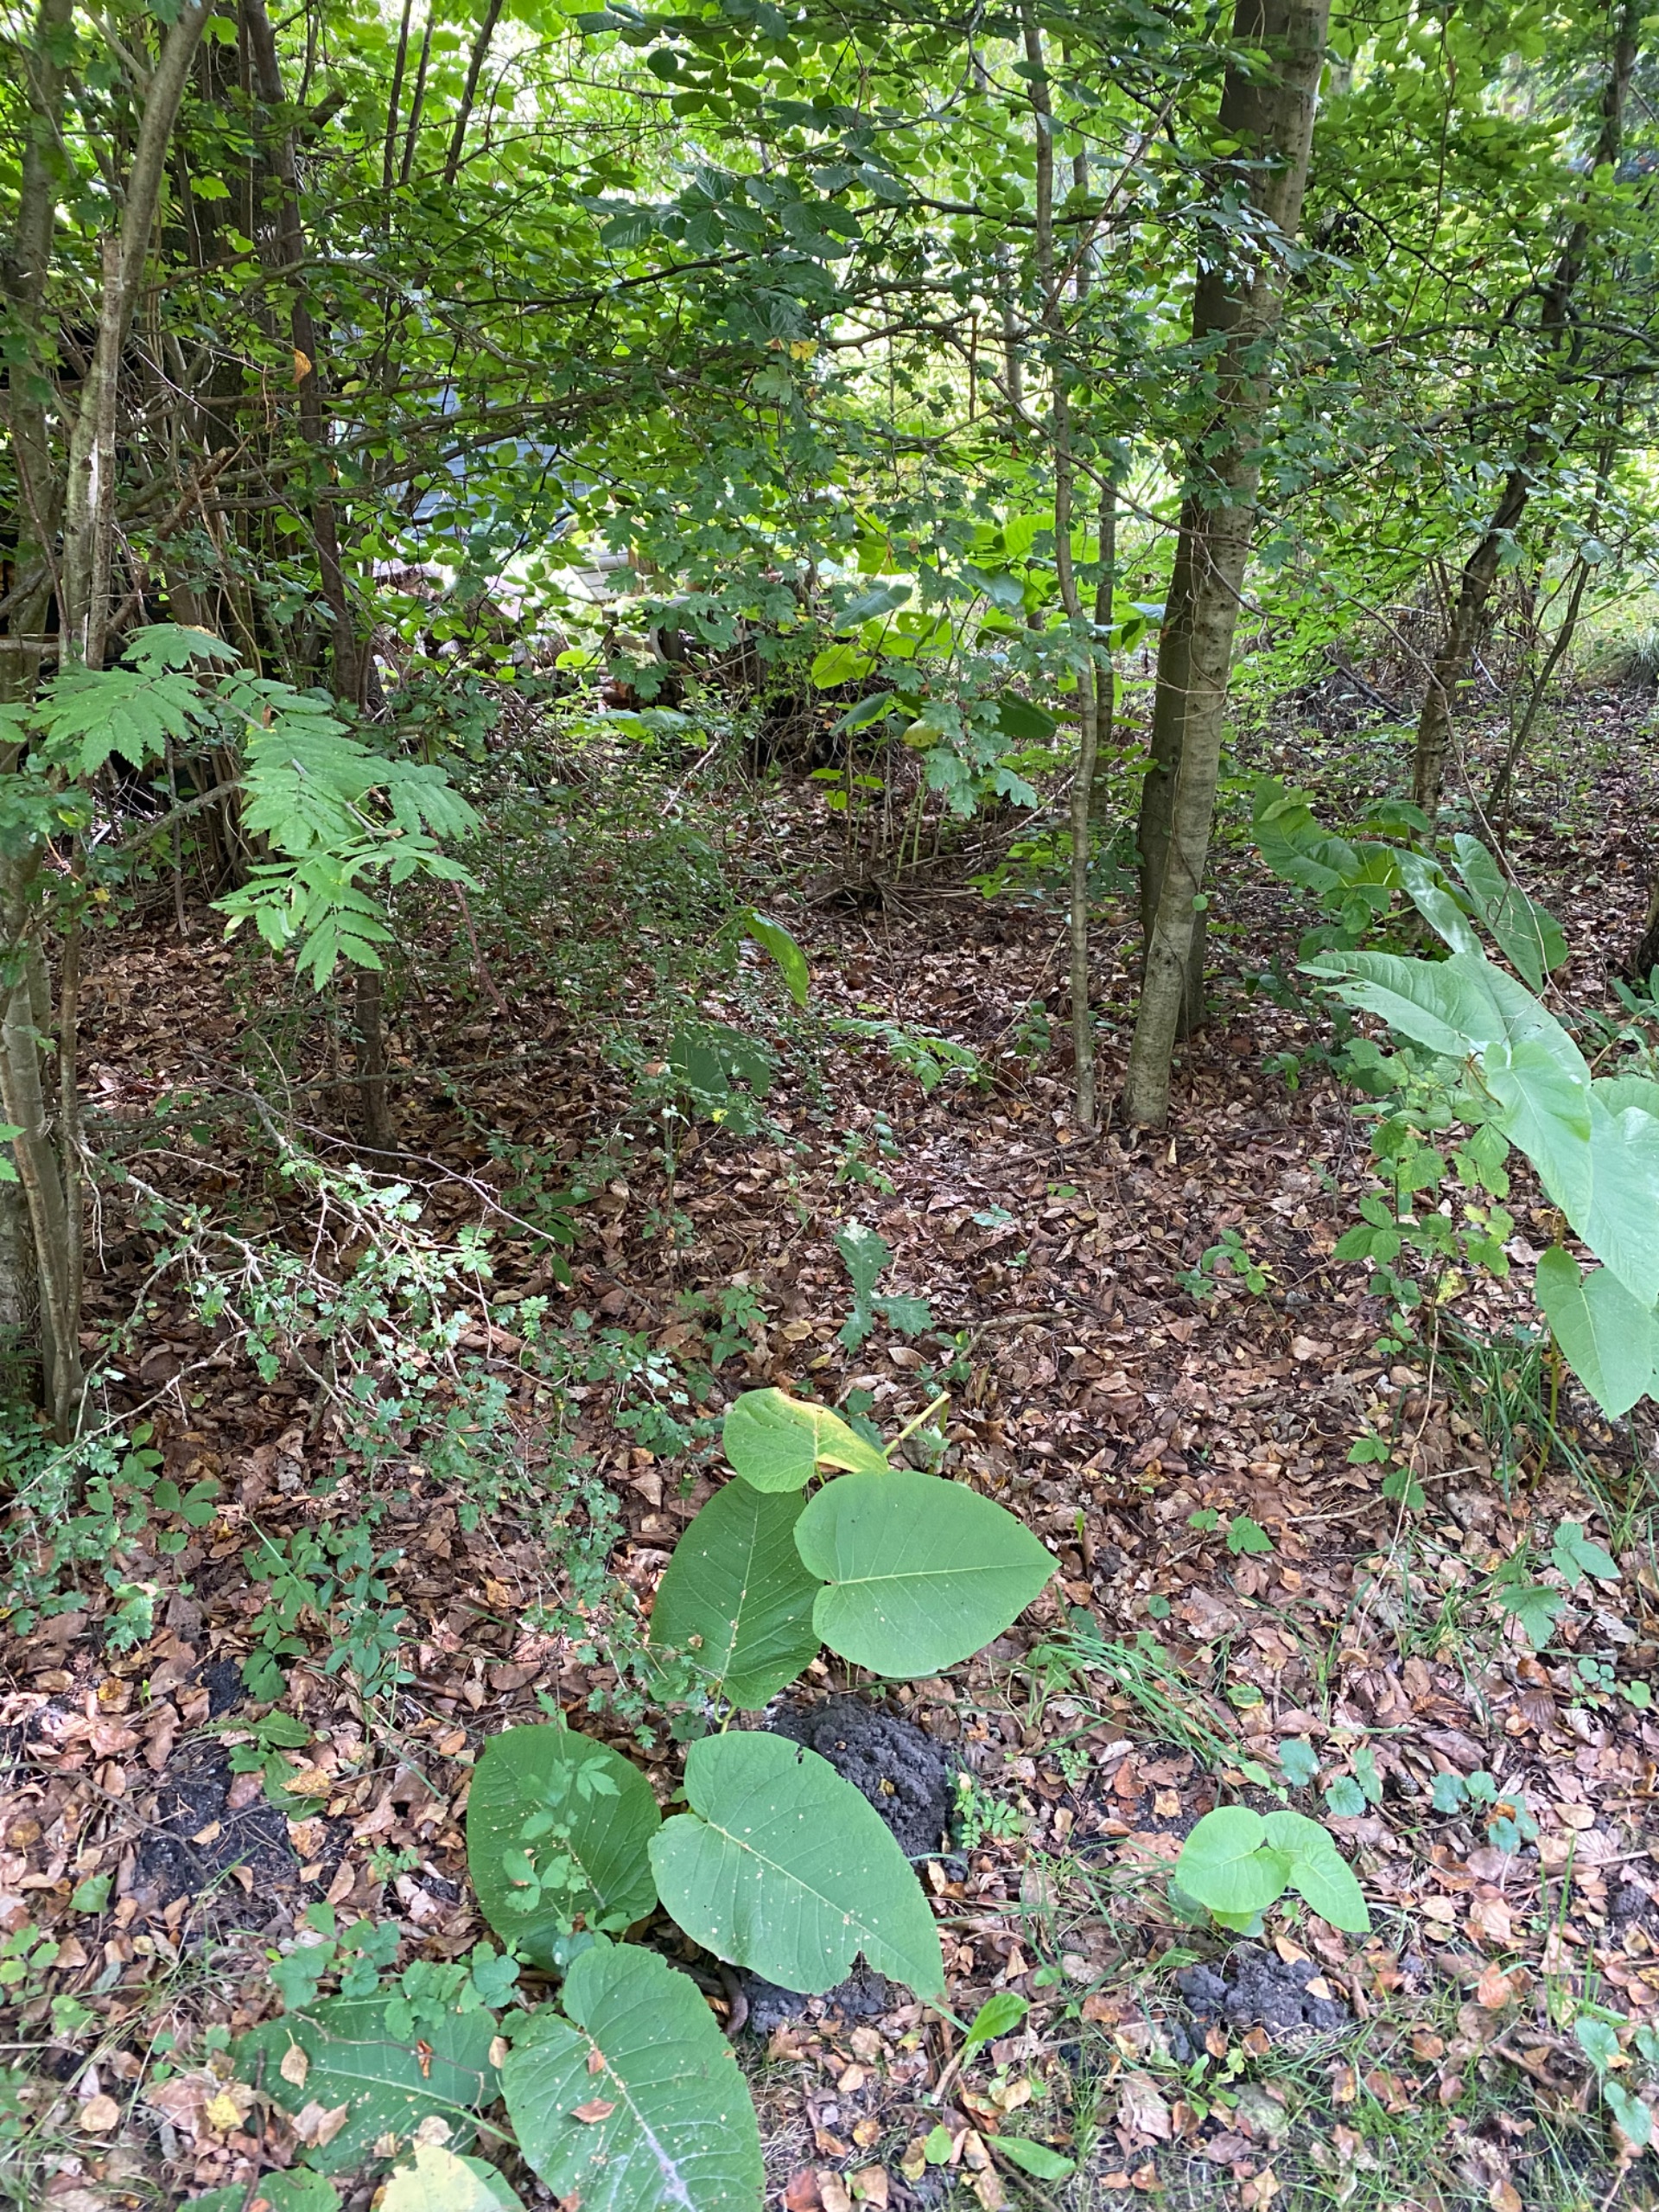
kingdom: Plantae
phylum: Tracheophyta
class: Magnoliopsida
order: Caryophyllales
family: Polygonaceae
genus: Reynoutria
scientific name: Reynoutria sachalinensis
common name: Kæmpe-pileurt
